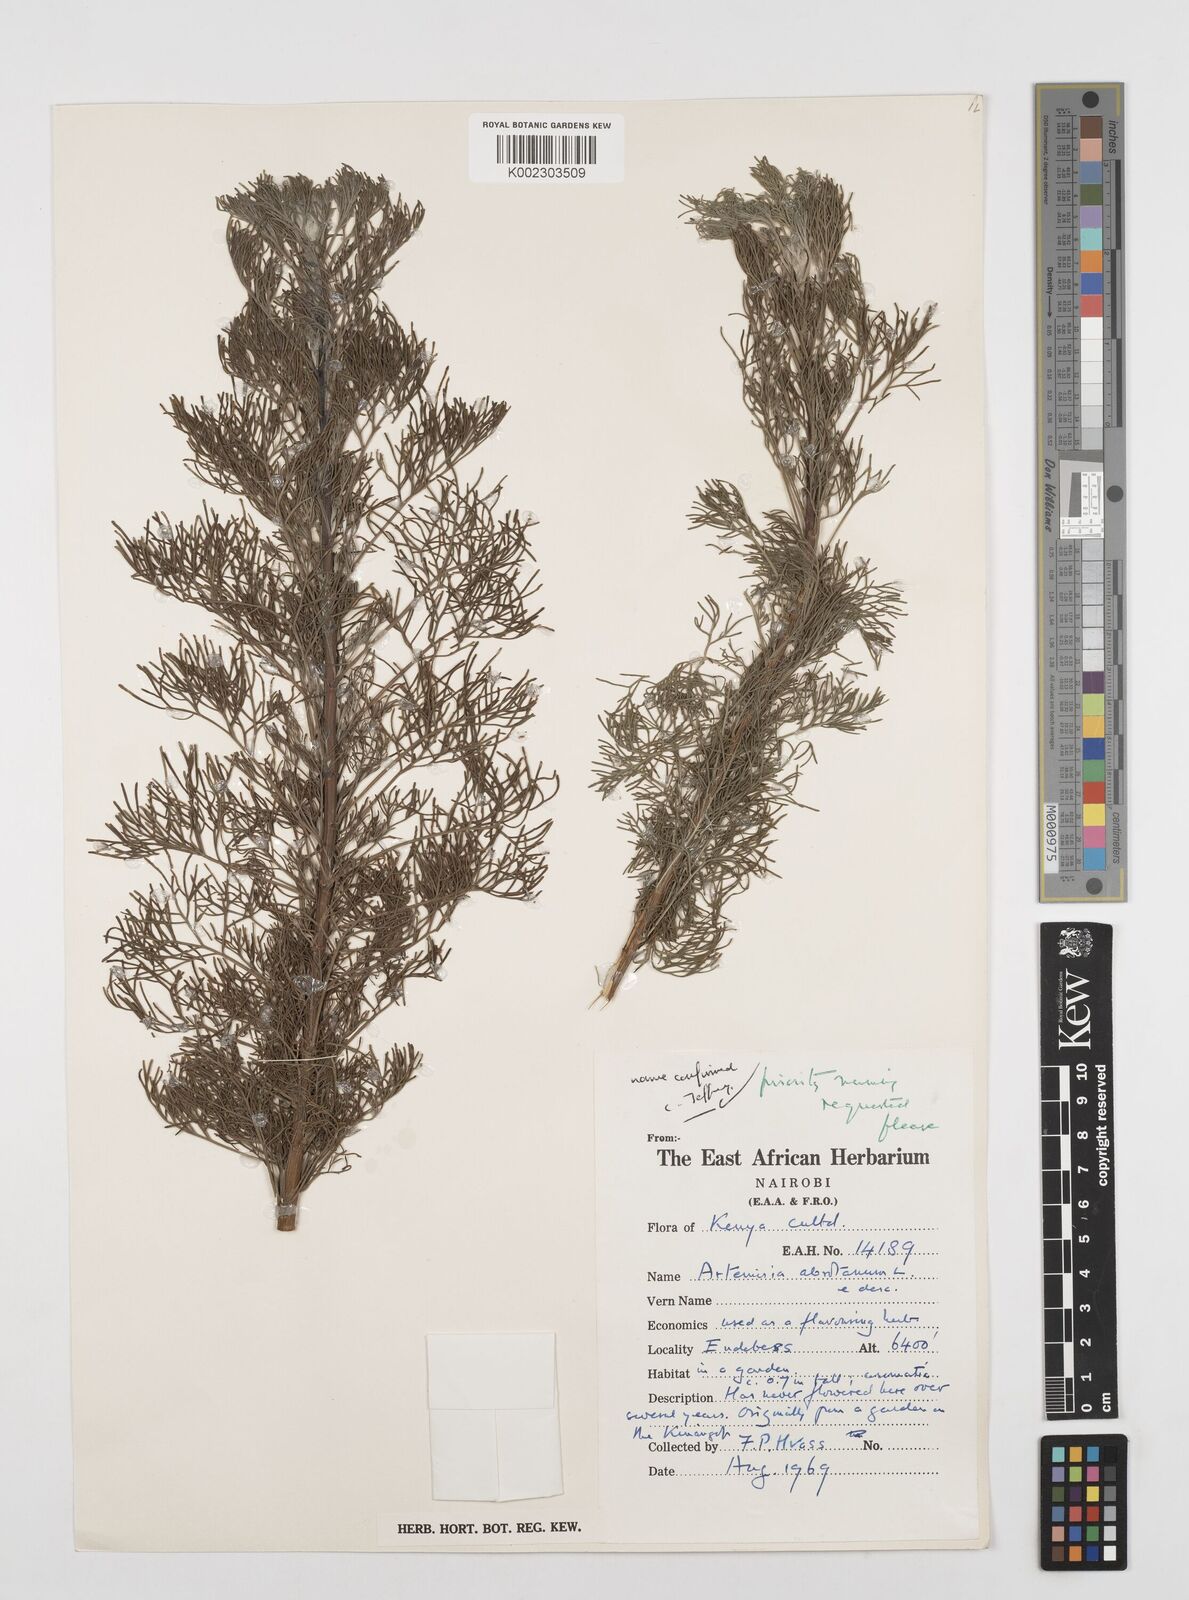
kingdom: Plantae
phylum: Tracheophyta
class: Magnoliopsida
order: Asterales
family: Asteraceae
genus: Artemisia
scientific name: Artemisia abrotanum
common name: Southernwood
